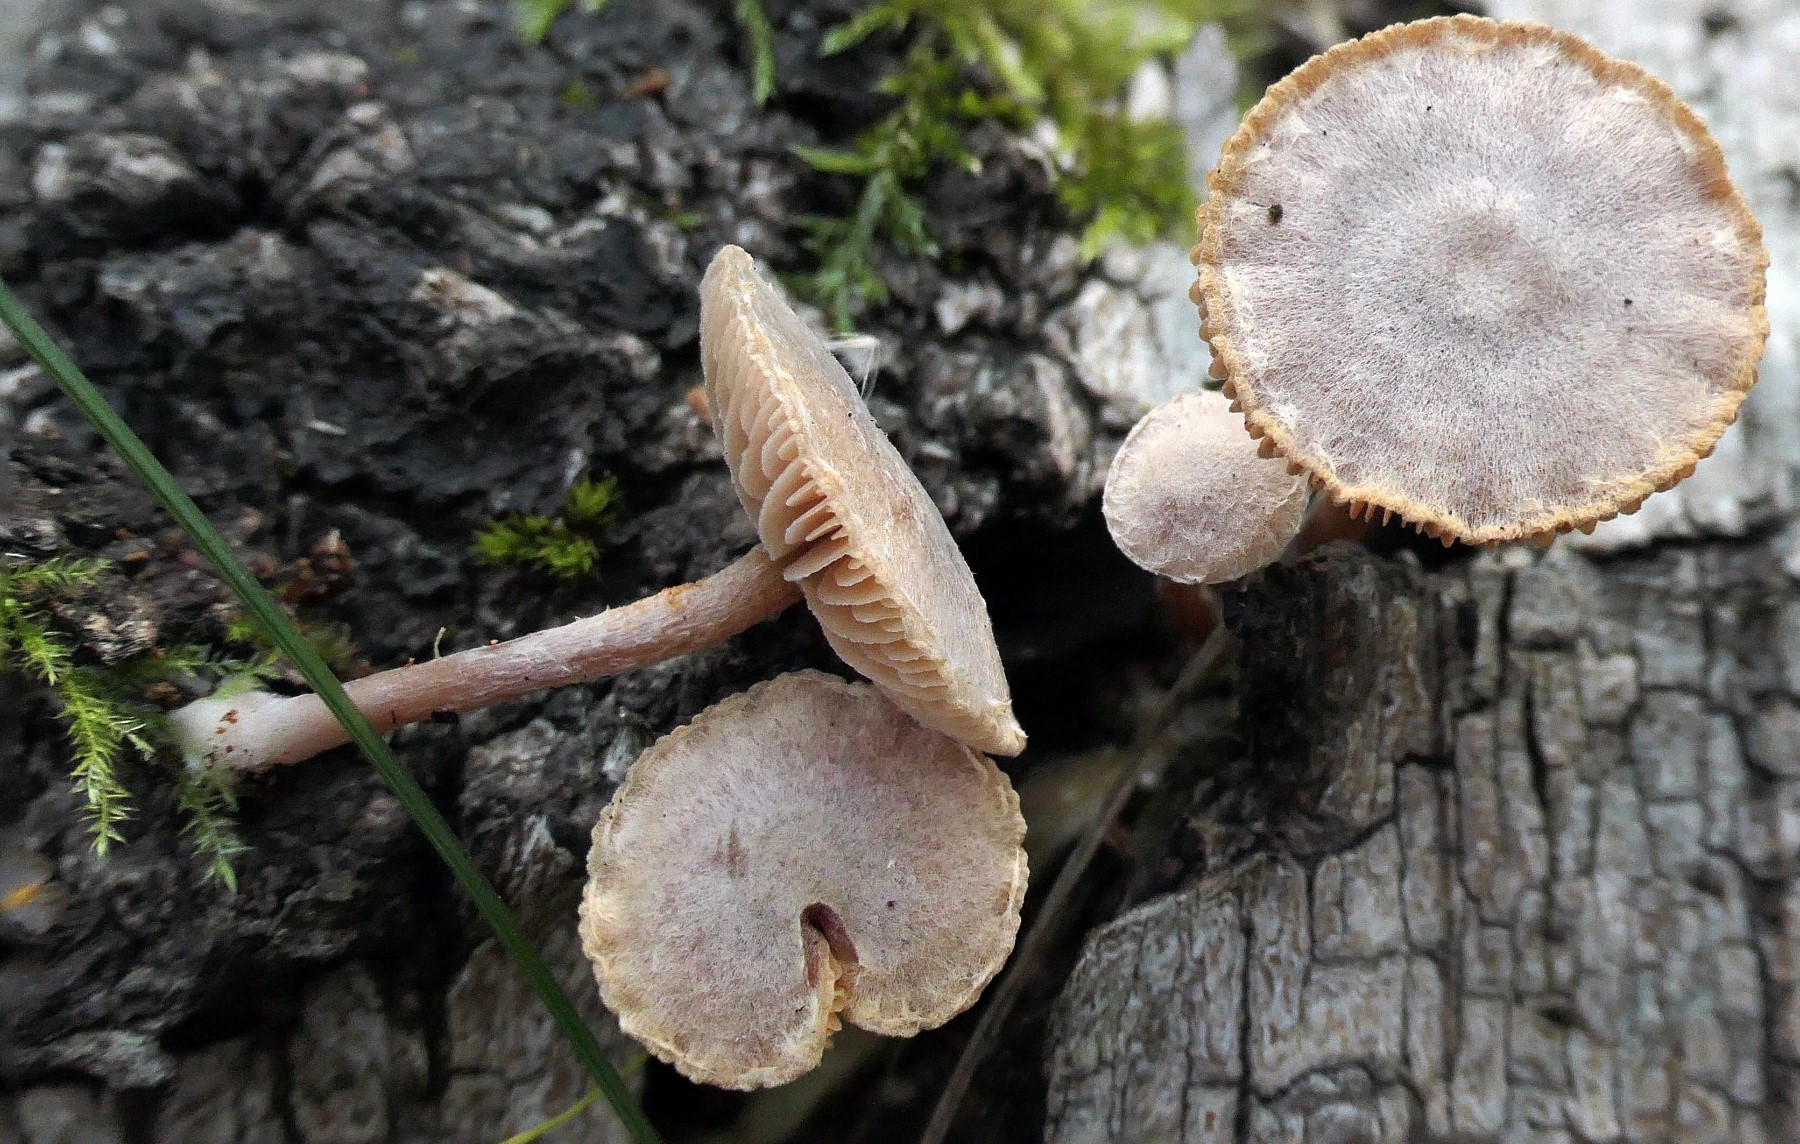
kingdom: Fungi
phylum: Basidiomycota
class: Agaricomycetes
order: Agaricales
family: Tubariaceae
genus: Tubaria
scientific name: Tubaria furfuracea
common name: kliddet fnughat
